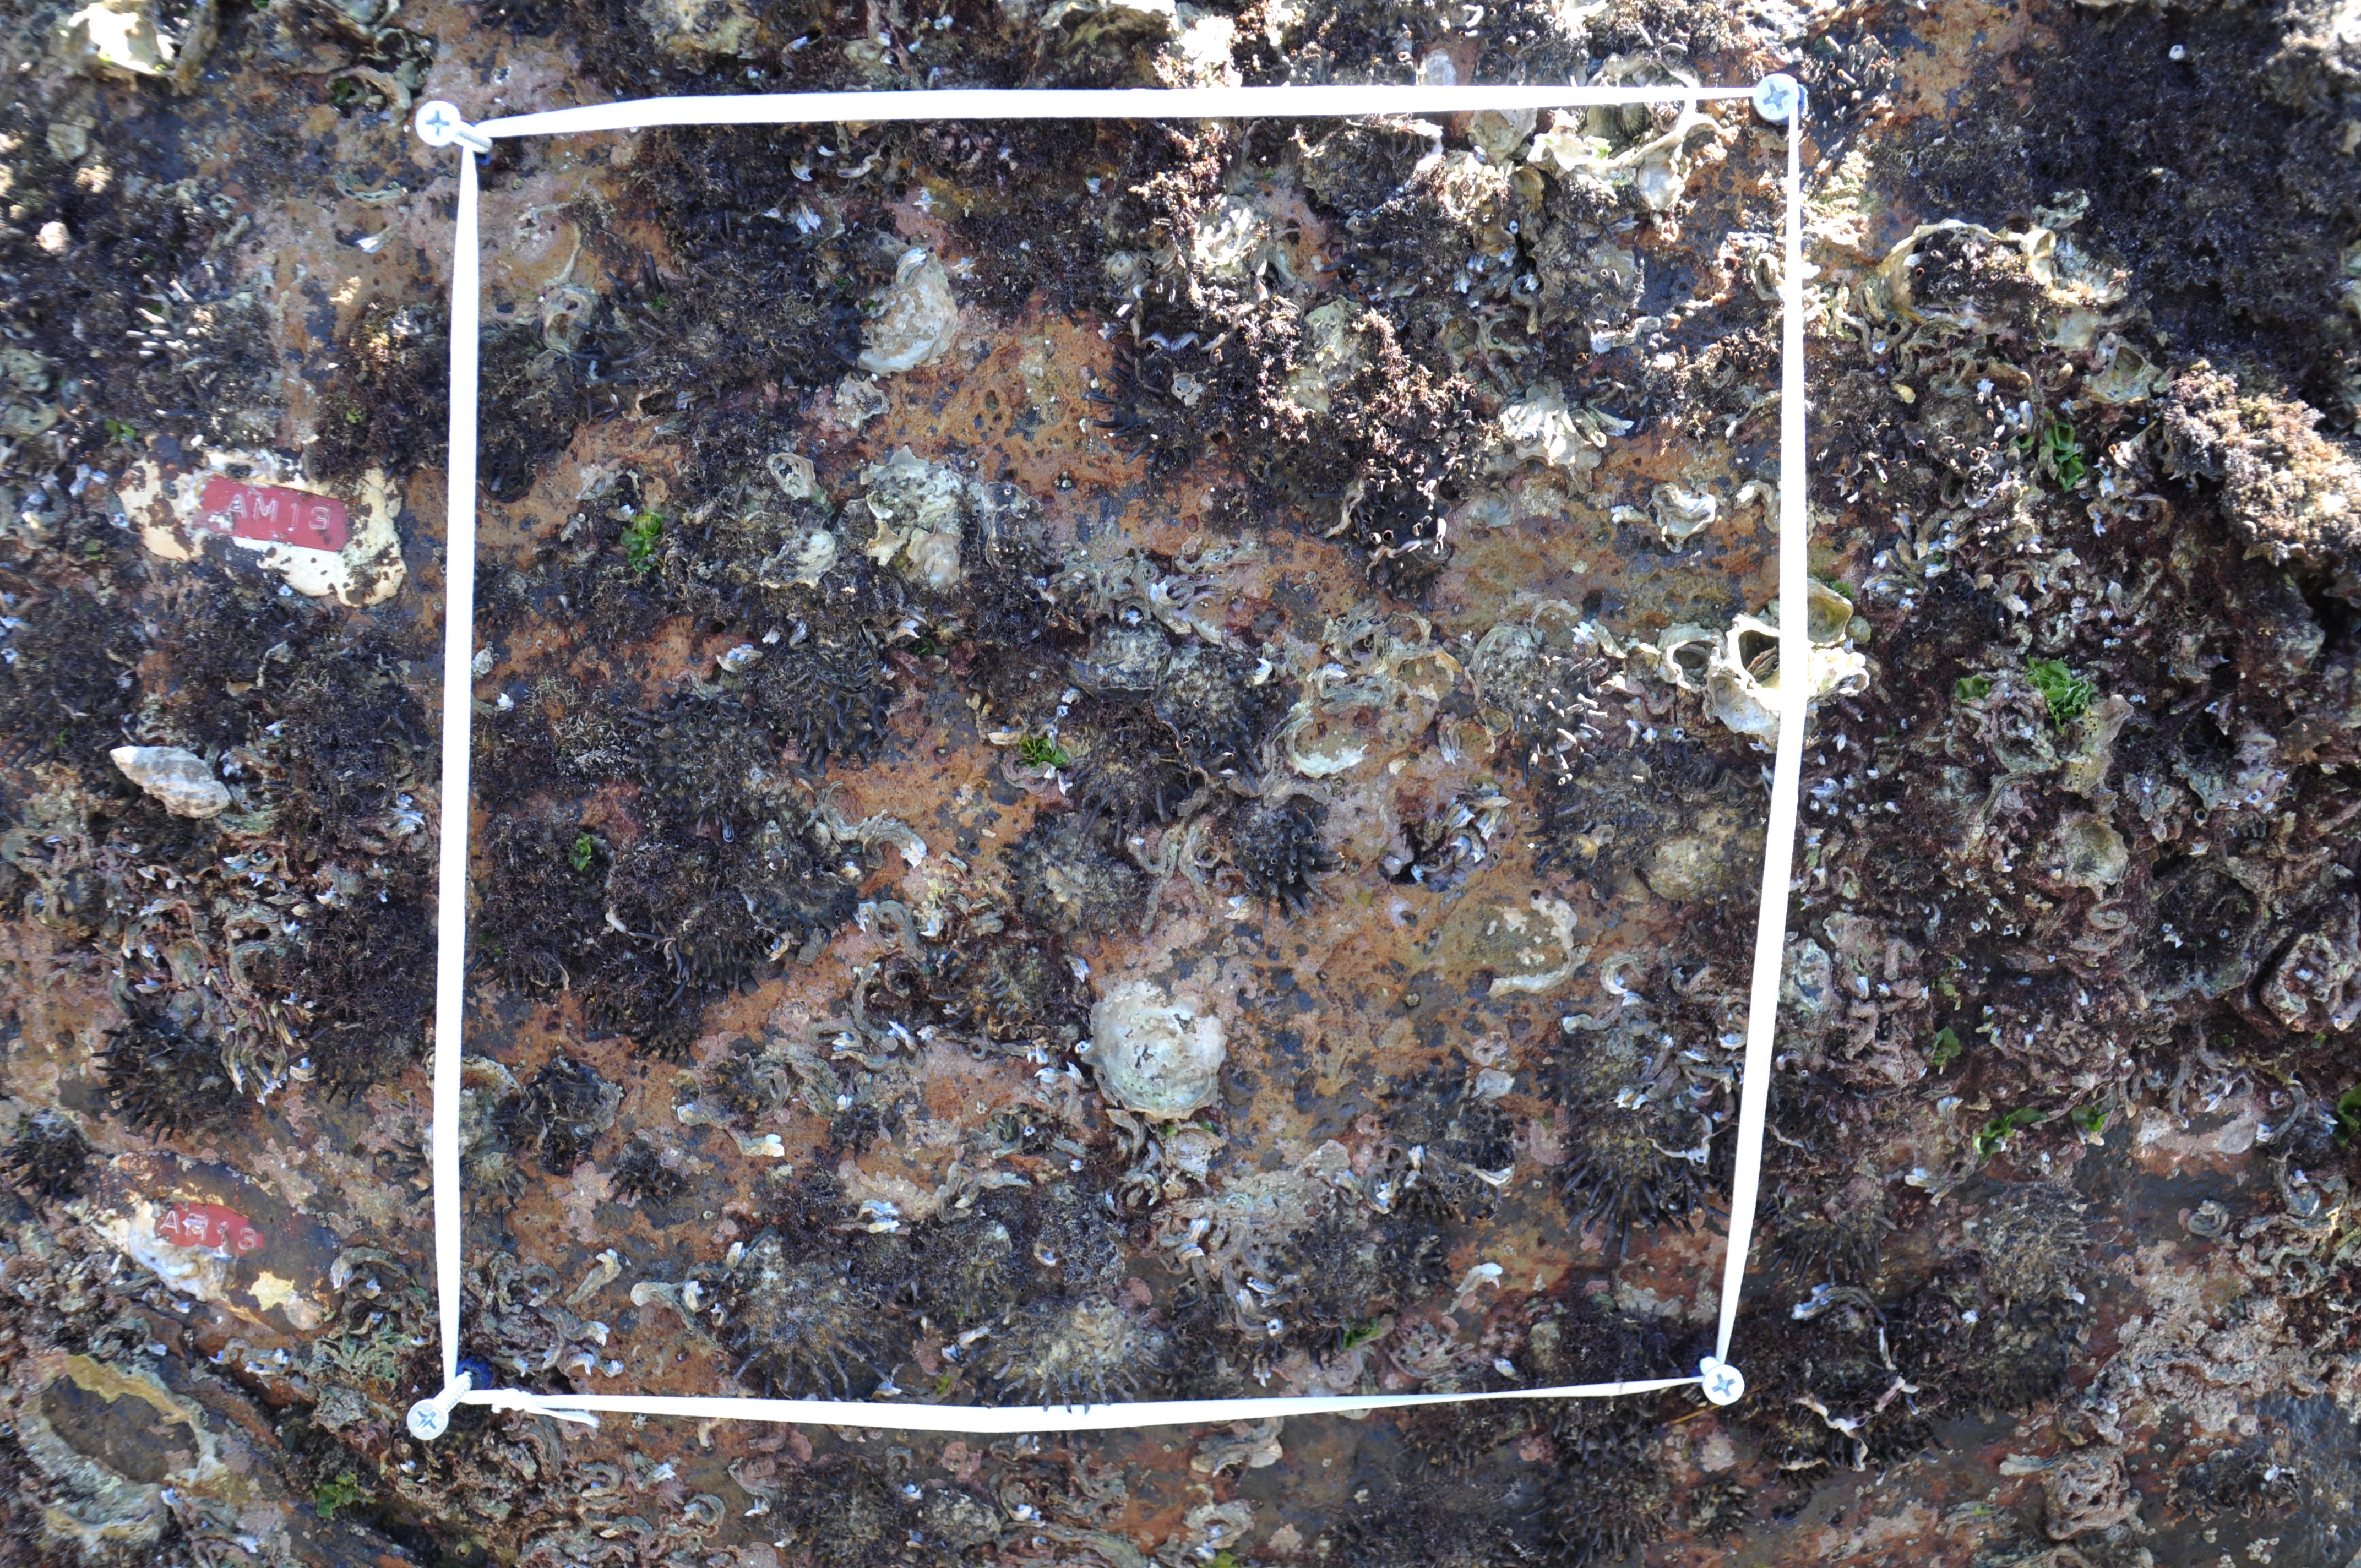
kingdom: Animalia
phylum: Arthropoda
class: Maxillopoda
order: Sessilia
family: Chthamalidae
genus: Chthamalus
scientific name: Chthamalus challengeri
